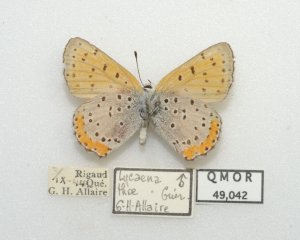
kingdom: Animalia
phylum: Arthropoda
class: Insecta
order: Lepidoptera
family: Sesiidae
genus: Sesia
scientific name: Sesia Lycaena hyllus
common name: Bronze Copper
